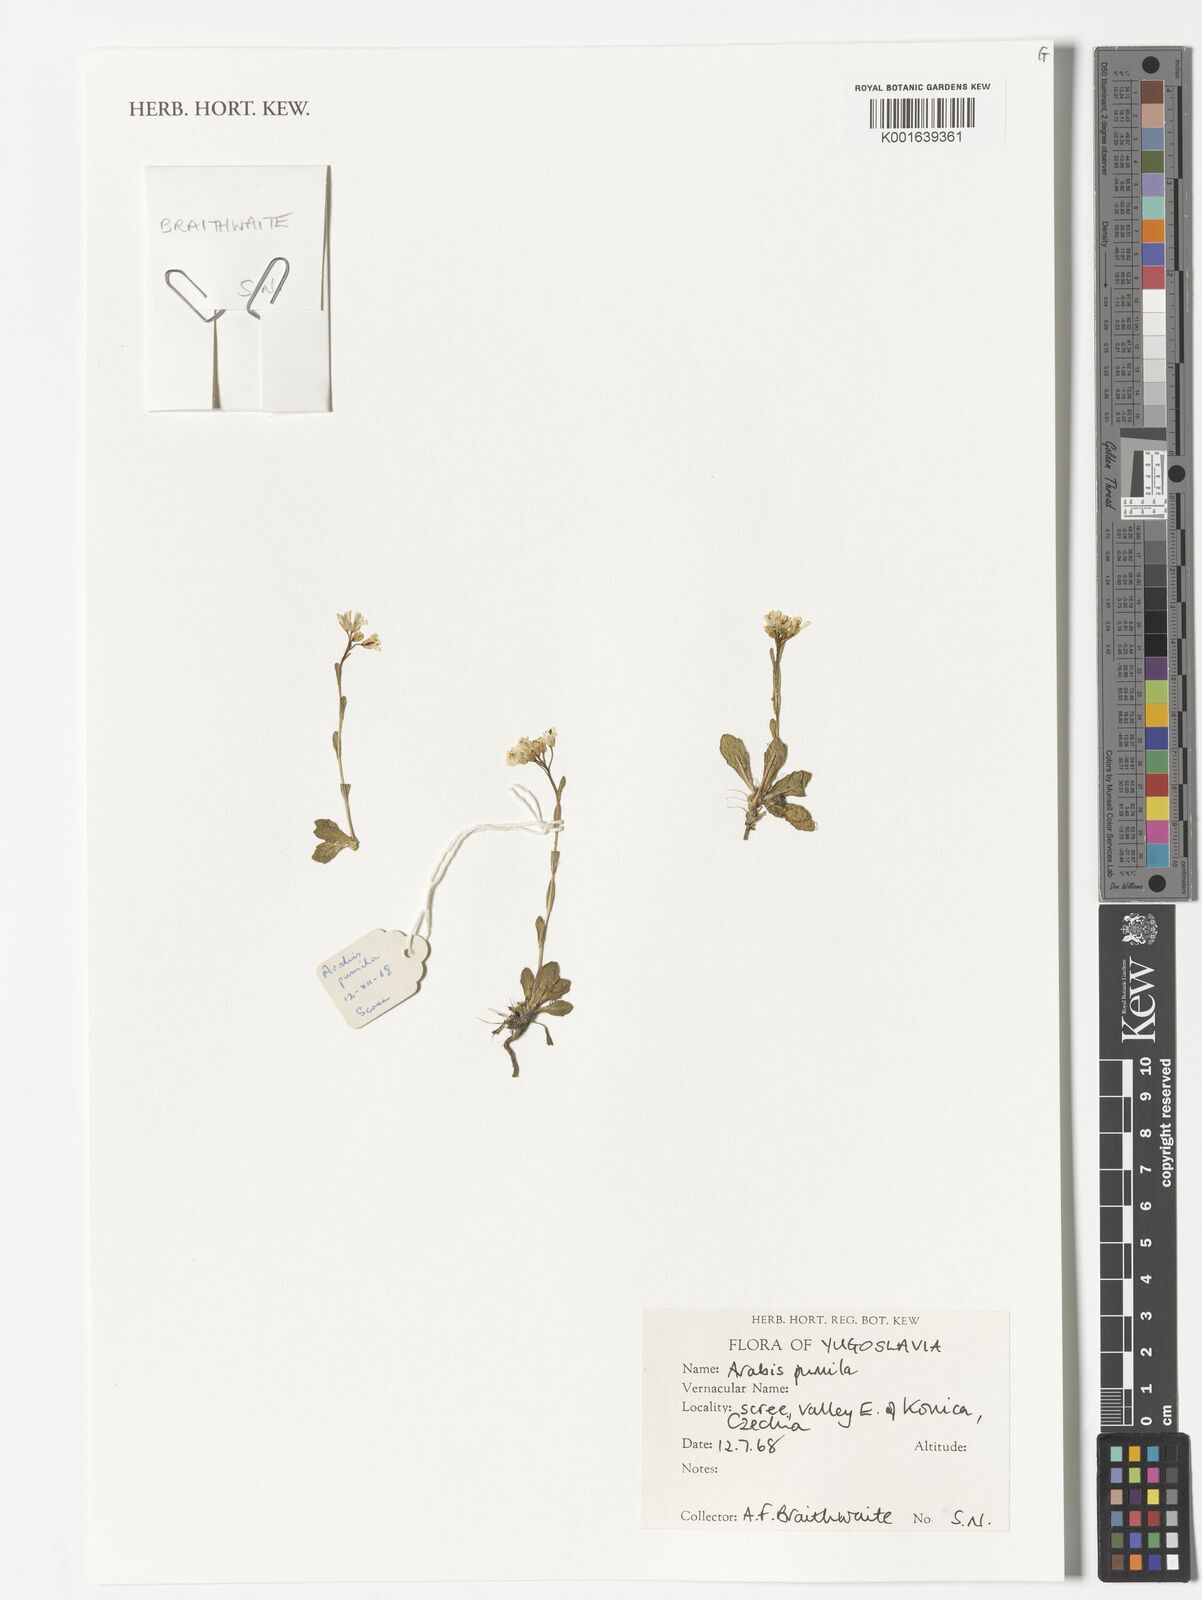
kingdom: Plantae
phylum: Tracheophyta
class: Magnoliopsida
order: Brassicales
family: Brassicaceae
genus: Arabis
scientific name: Arabis pumila
